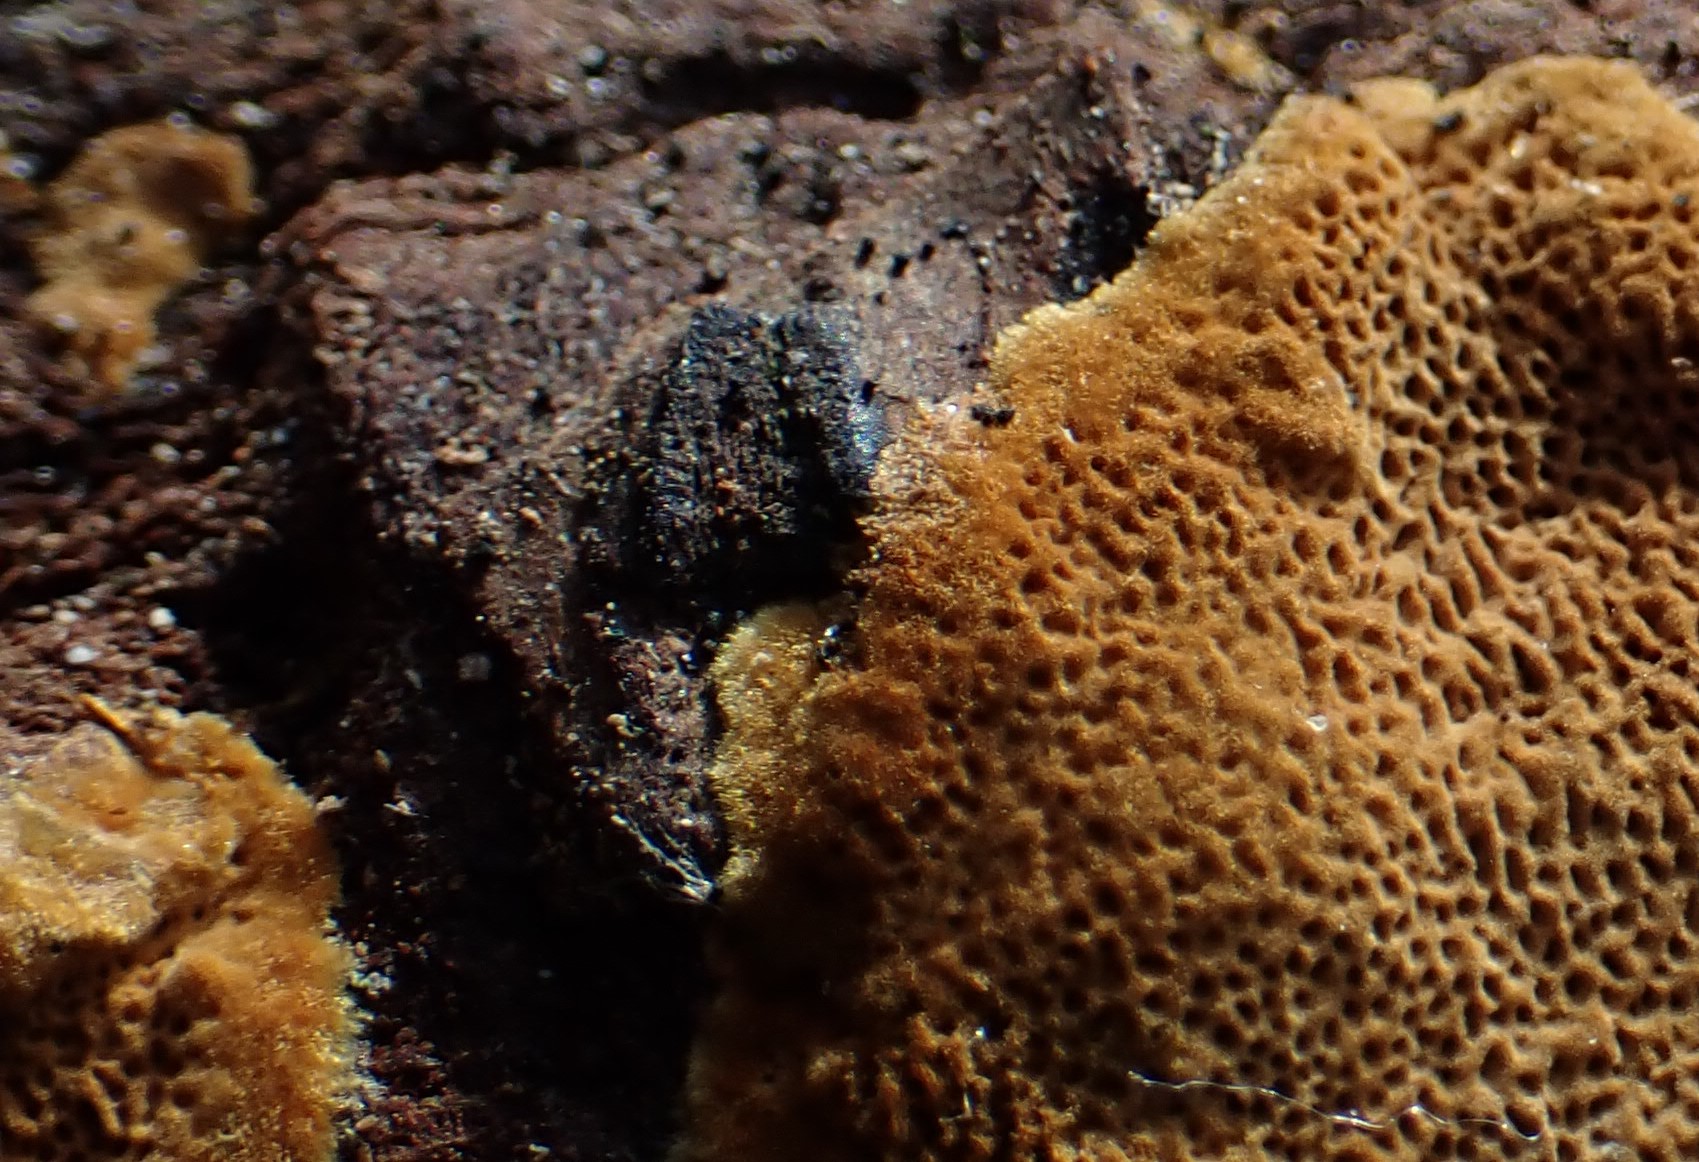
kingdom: Fungi
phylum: Basidiomycota
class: Agaricomycetes
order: Hymenochaetales
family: Hymenochaetaceae
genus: Fuscoporia
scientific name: Fuscoporia ferruginosa
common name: rustbrun ildporesvamp
